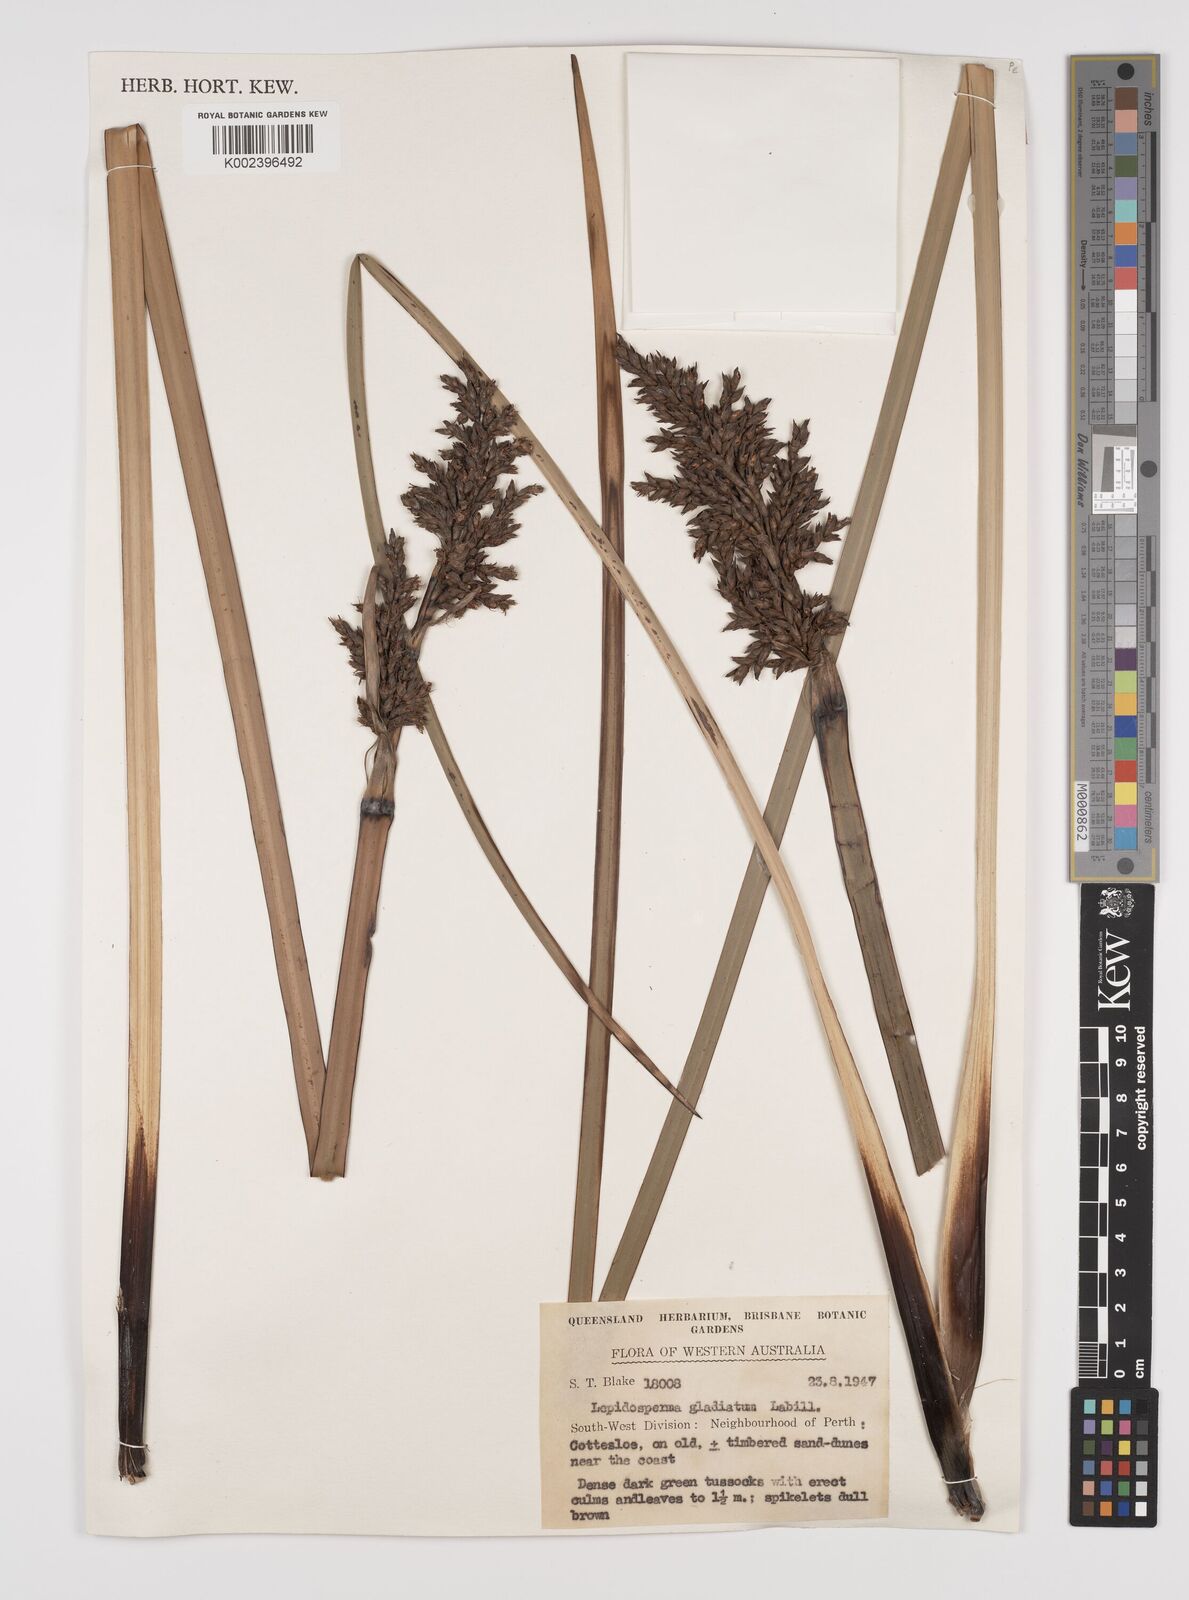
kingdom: Plantae
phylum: Tracheophyta
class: Liliopsida
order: Poales
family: Cyperaceae
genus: Lepidosperma
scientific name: Lepidosperma gladiatum
